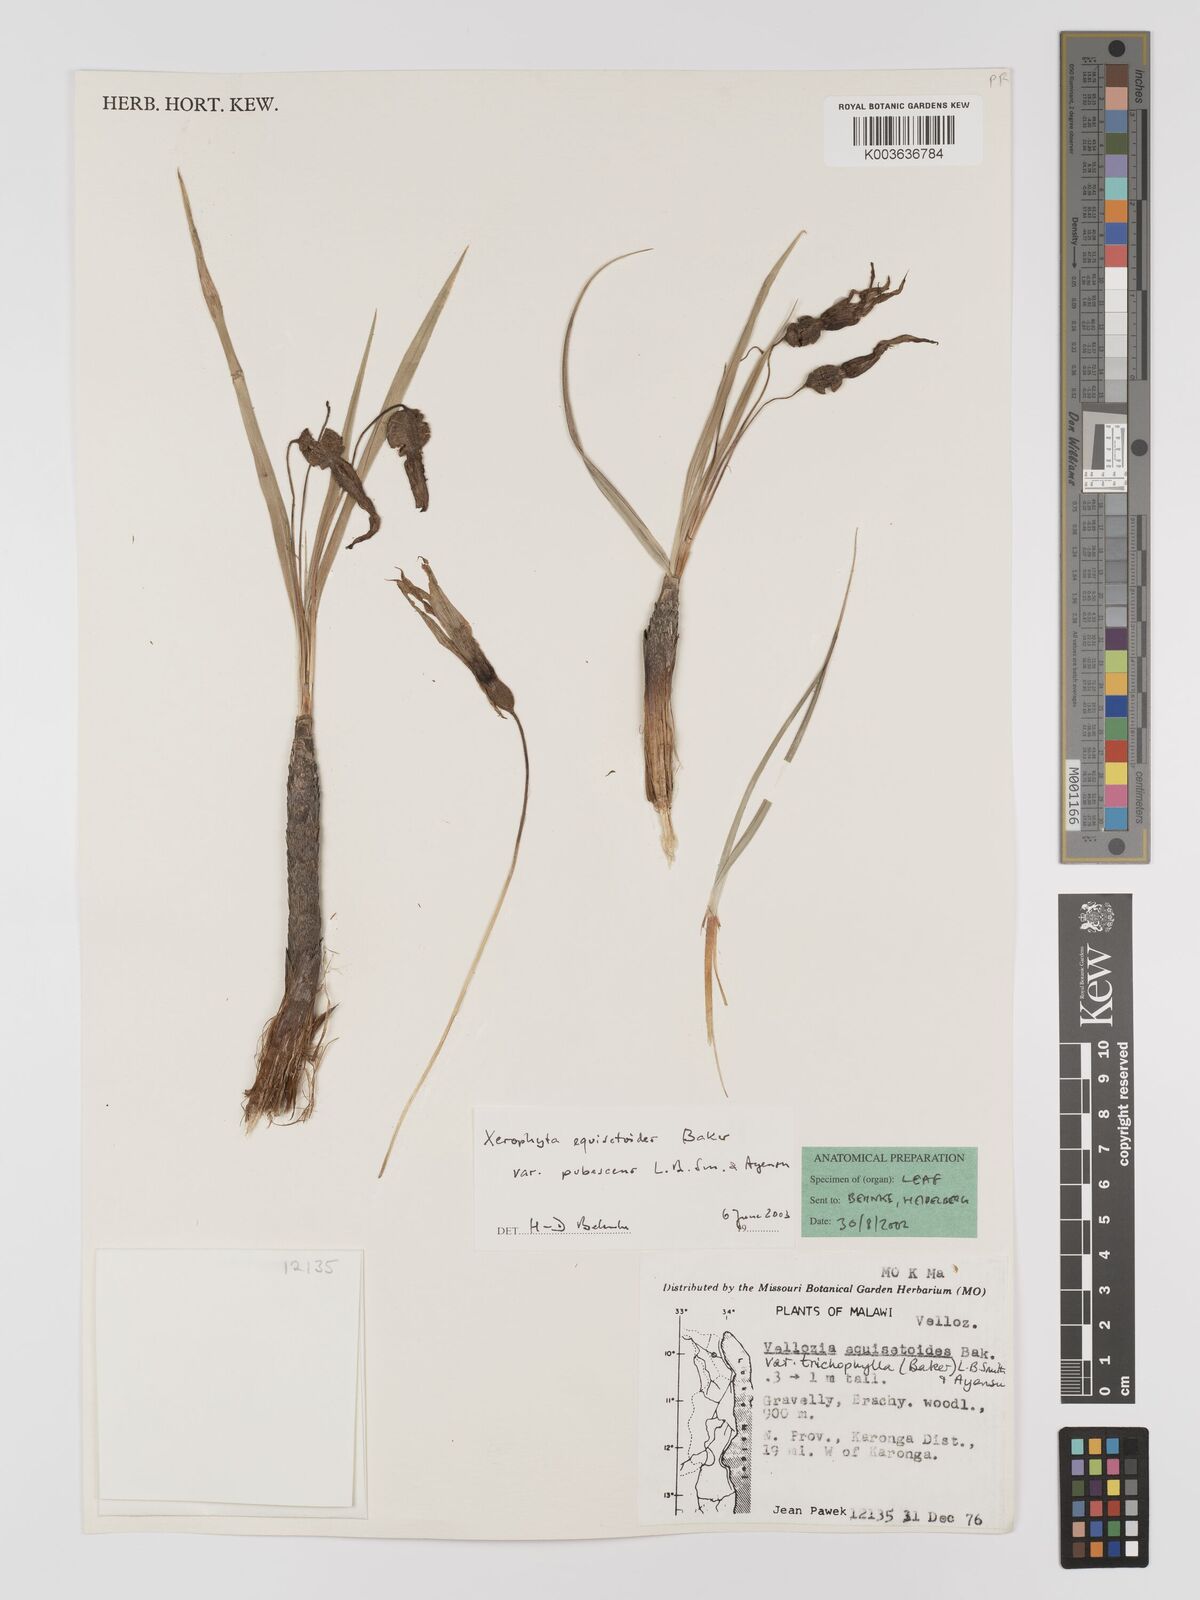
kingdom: Plantae
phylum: Tracheophyta
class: Liliopsida
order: Pandanales
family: Velloziaceae
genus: Xerophyta
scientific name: Xerophyta wentzeliana
